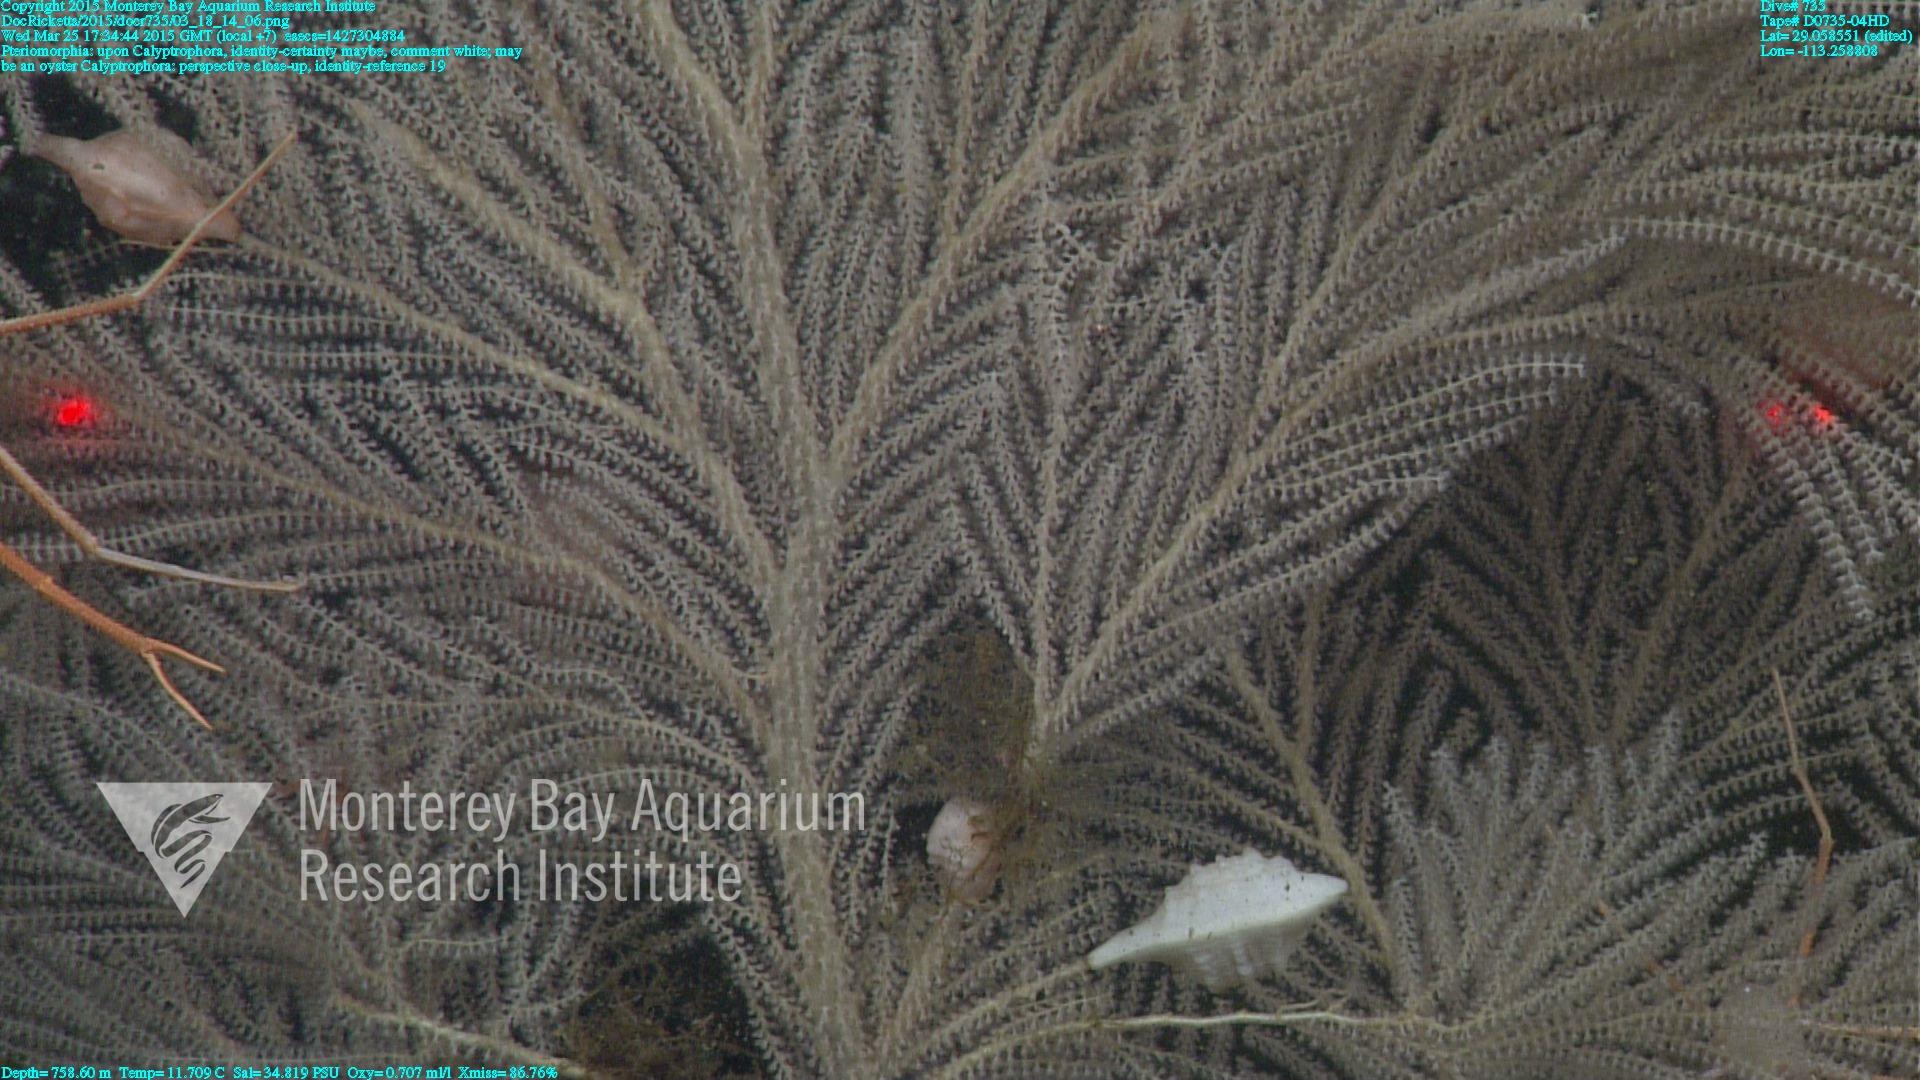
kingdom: Animalia
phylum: Cnidaria
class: Anthozoa
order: Scleralcyonacea
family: Primnoidae
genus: Calyptrophora
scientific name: Calyptrophora
